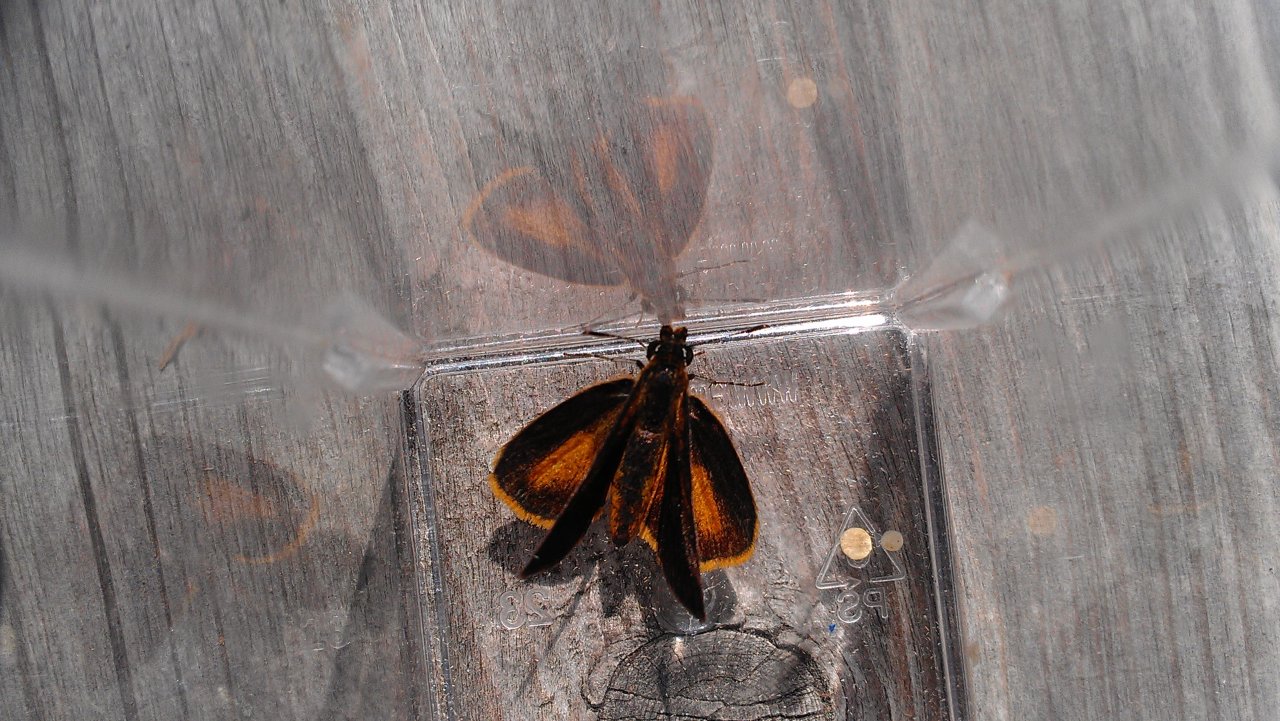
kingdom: Animalia
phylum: Arthropoda
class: Insecta
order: Lepidoptera
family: Hesperiidae
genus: Ancyloxypha
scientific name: Ancyloxypha numitor
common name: Least Skipper
